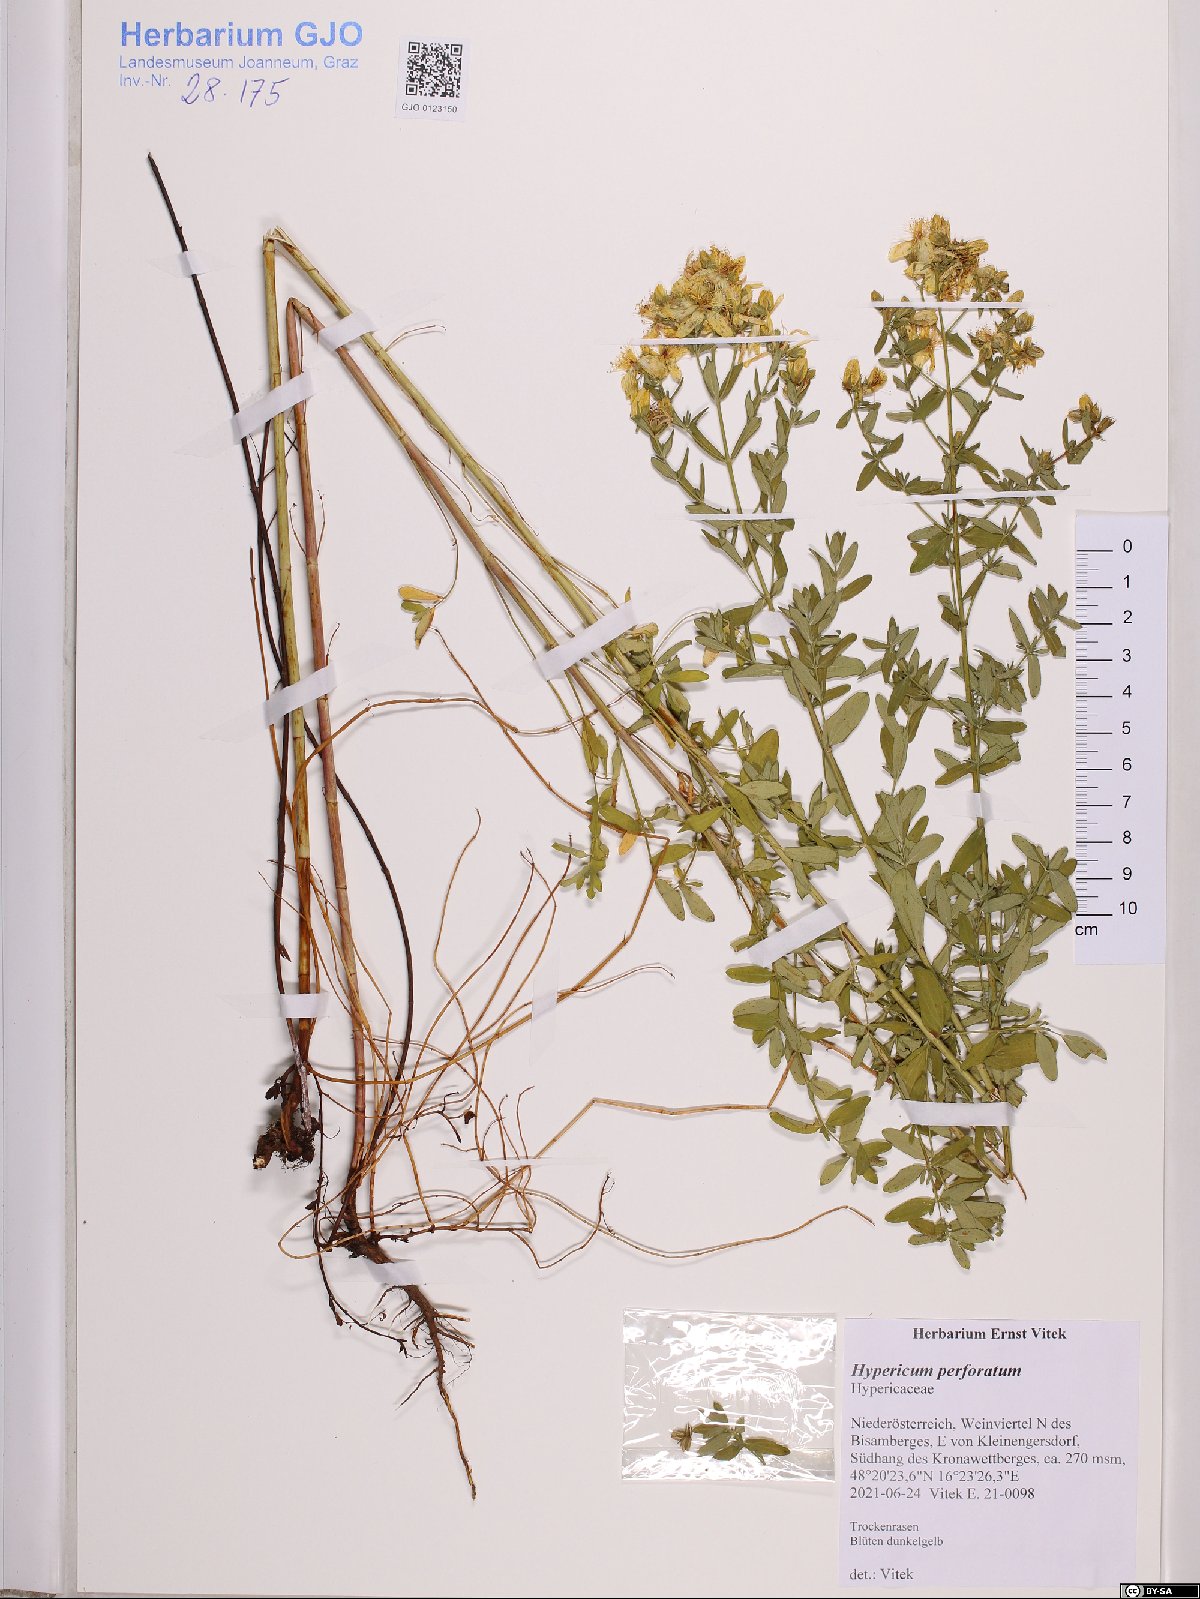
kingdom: Plantae
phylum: Tracheophyta
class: Magnoliopsida
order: Malpighiales
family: Hypericaceae
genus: Hypericum
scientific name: Hypericum perforatum
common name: Common st. johnswort
